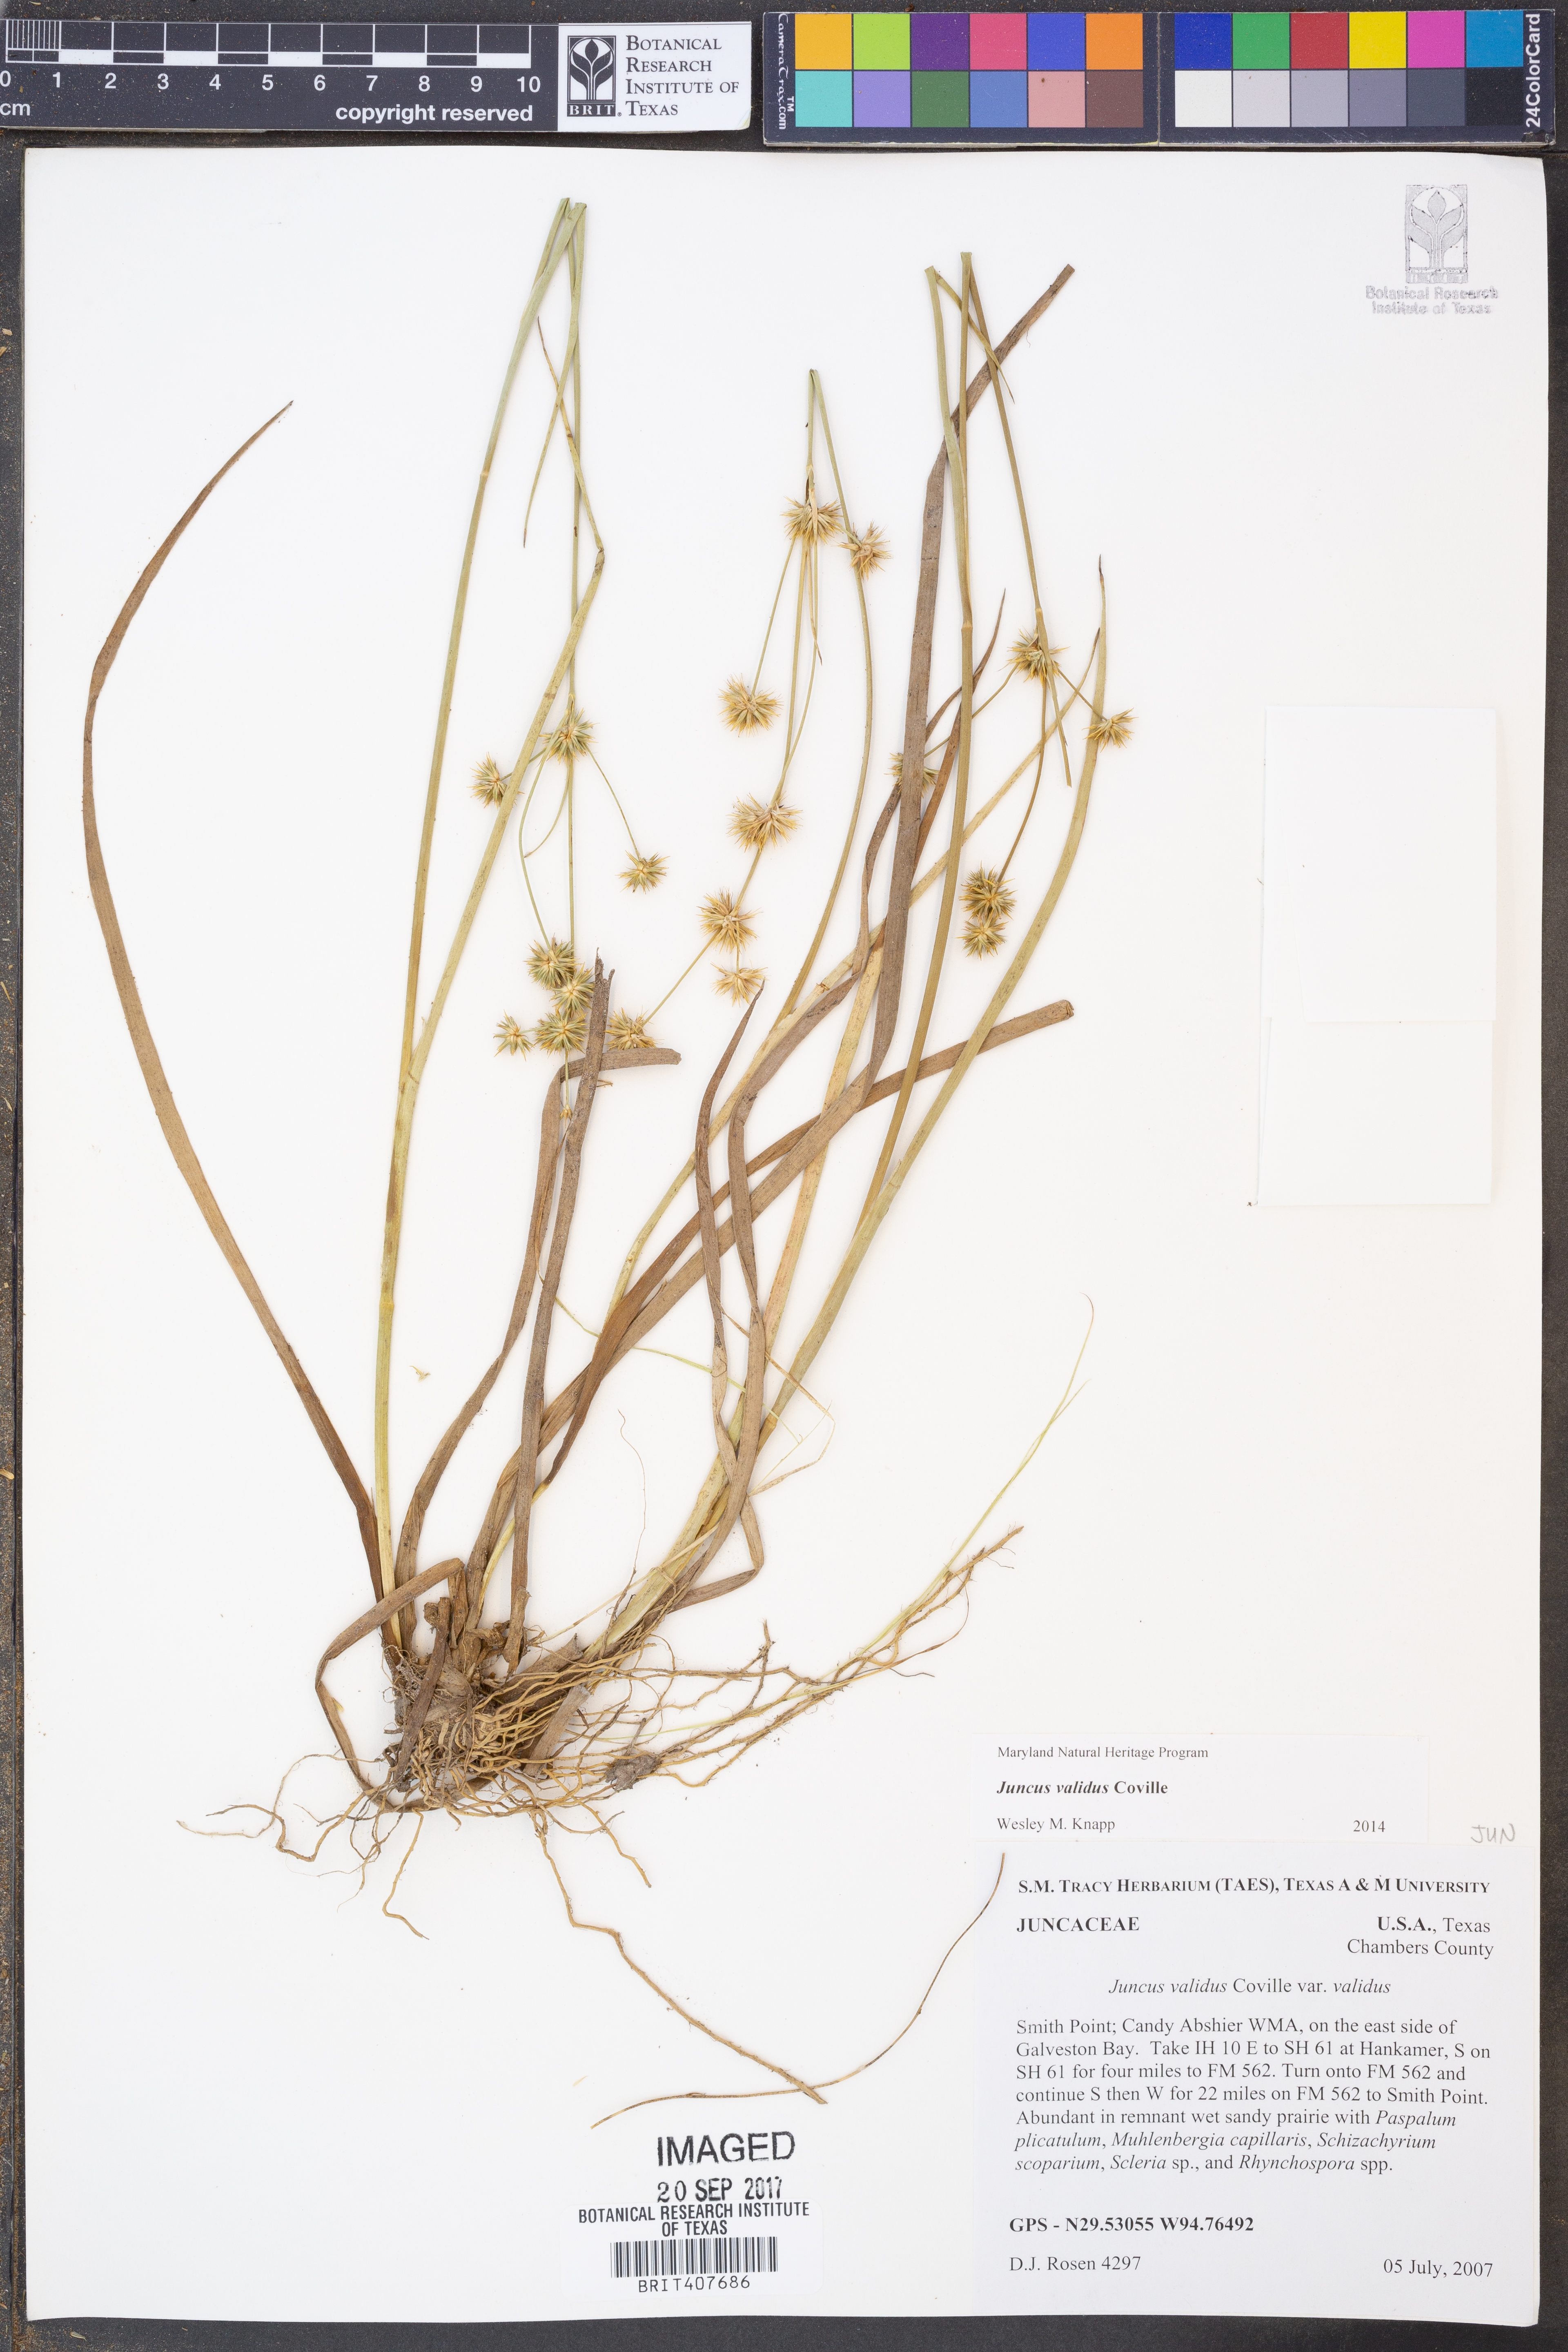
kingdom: Plantae
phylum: Tracheophyta
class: Liliopsida
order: Poales
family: Juncaceae
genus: Juncus
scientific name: Juncus validus
